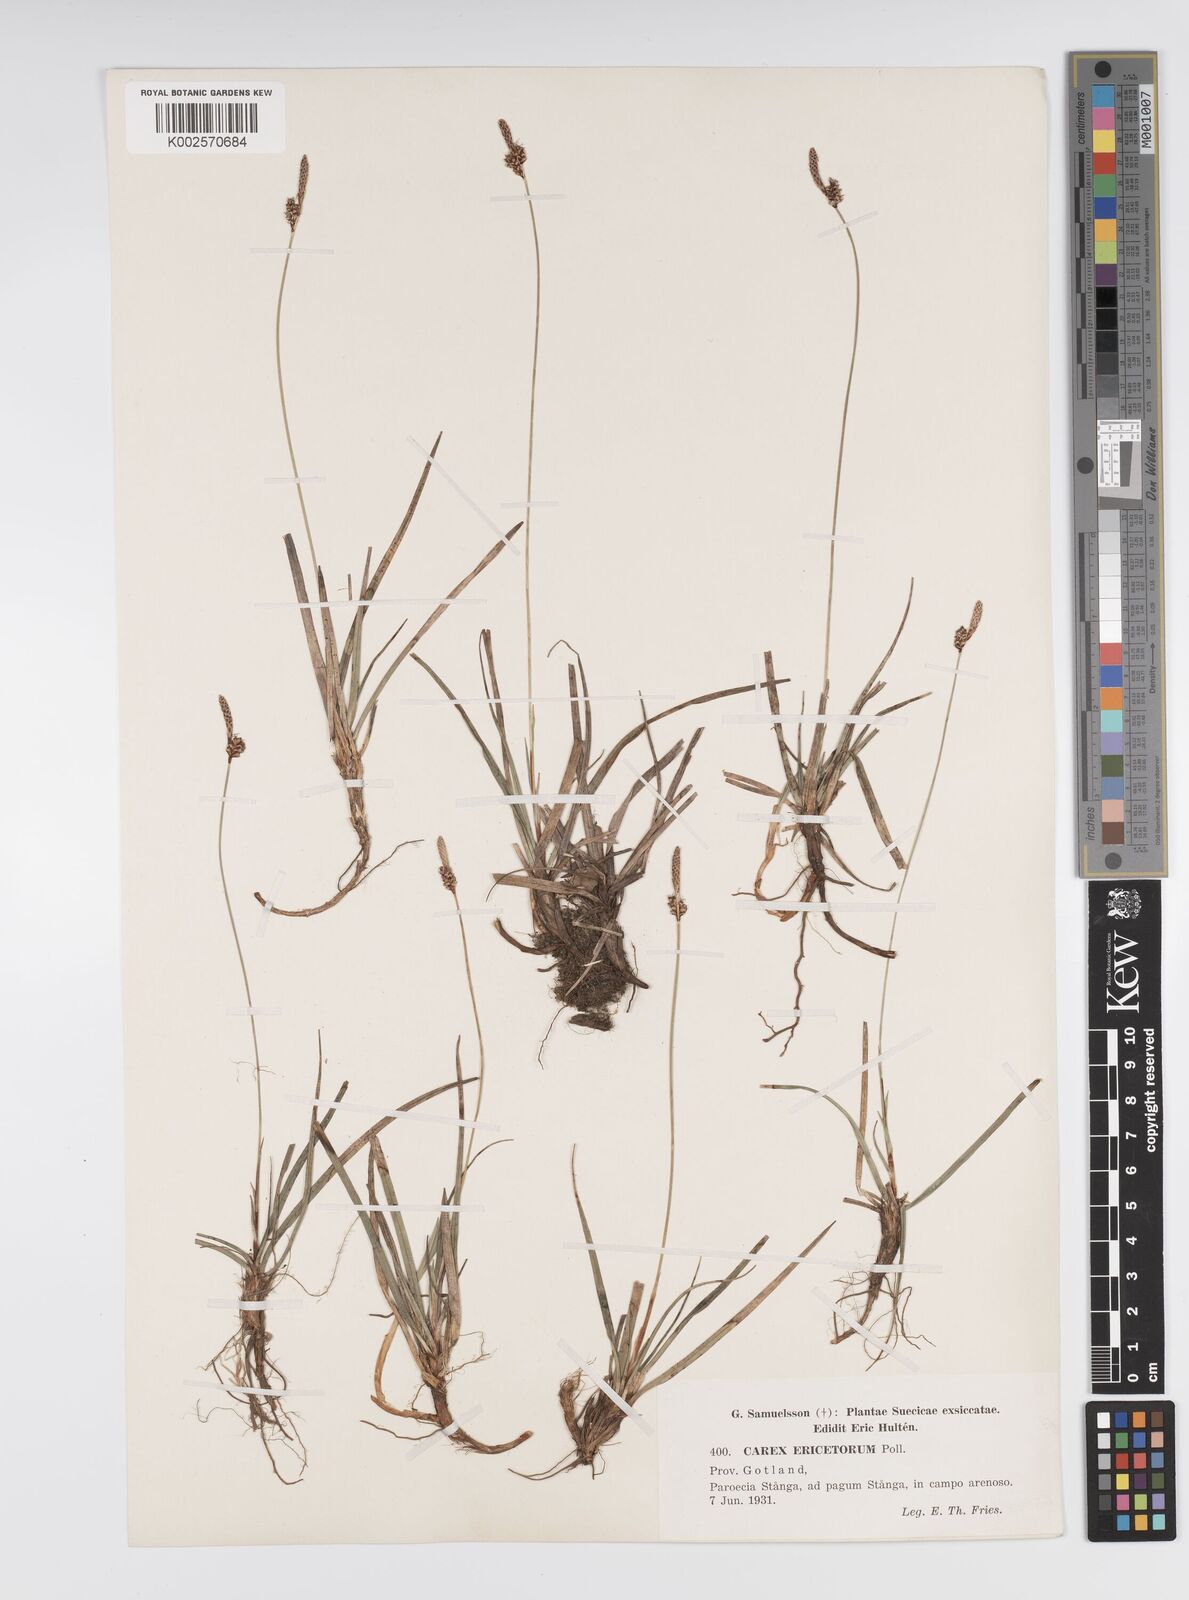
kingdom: Plantae
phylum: Tracheophyta
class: Liliopsida
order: Poales
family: Cyperaceae
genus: Carex
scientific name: Carex ericetorum
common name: Rare spring-sedge
